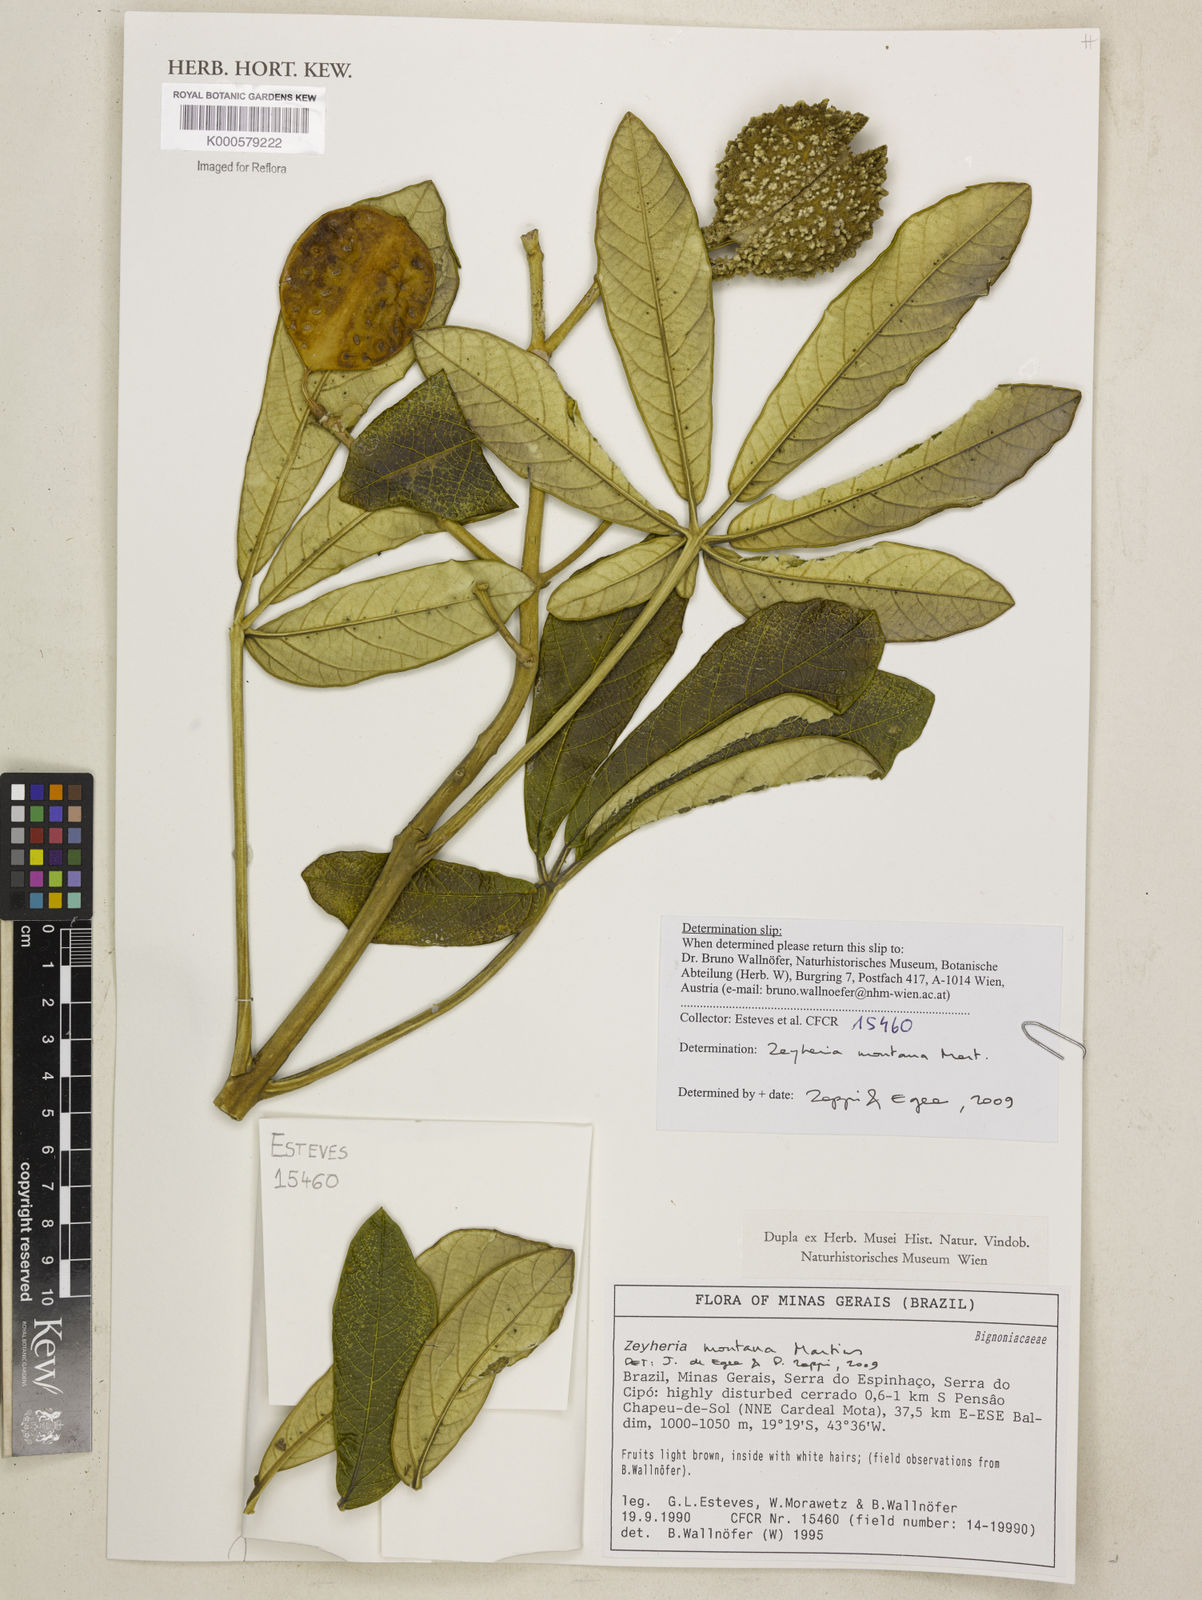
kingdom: Plantae
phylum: Tracheophyta
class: Magnoliopsida
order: Lamiales
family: Bignoniaceae
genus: Zeyheria
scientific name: Zeyheria montana
